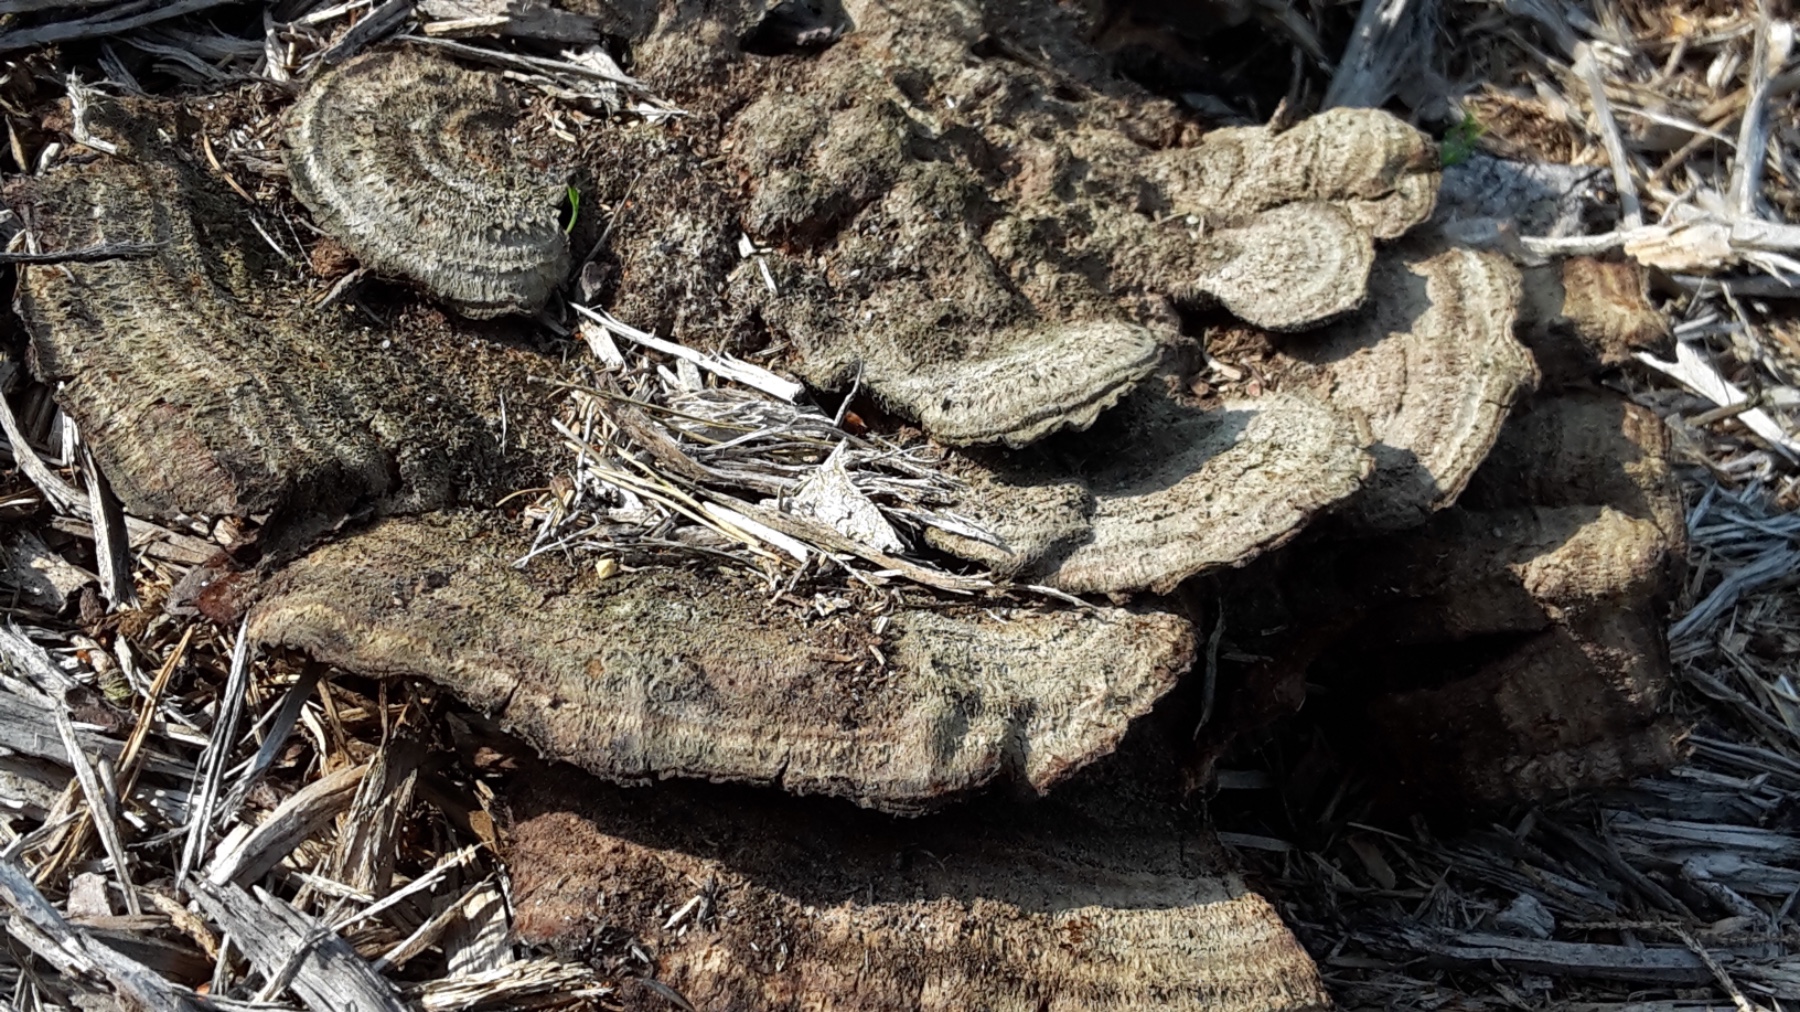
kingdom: Fungi
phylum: Basidiomycota
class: Agaricomycetes
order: Polyporales
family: Laetiporaceae
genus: Phaeolus
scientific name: Phaeolus schweinitzii
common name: brunporesvamp
